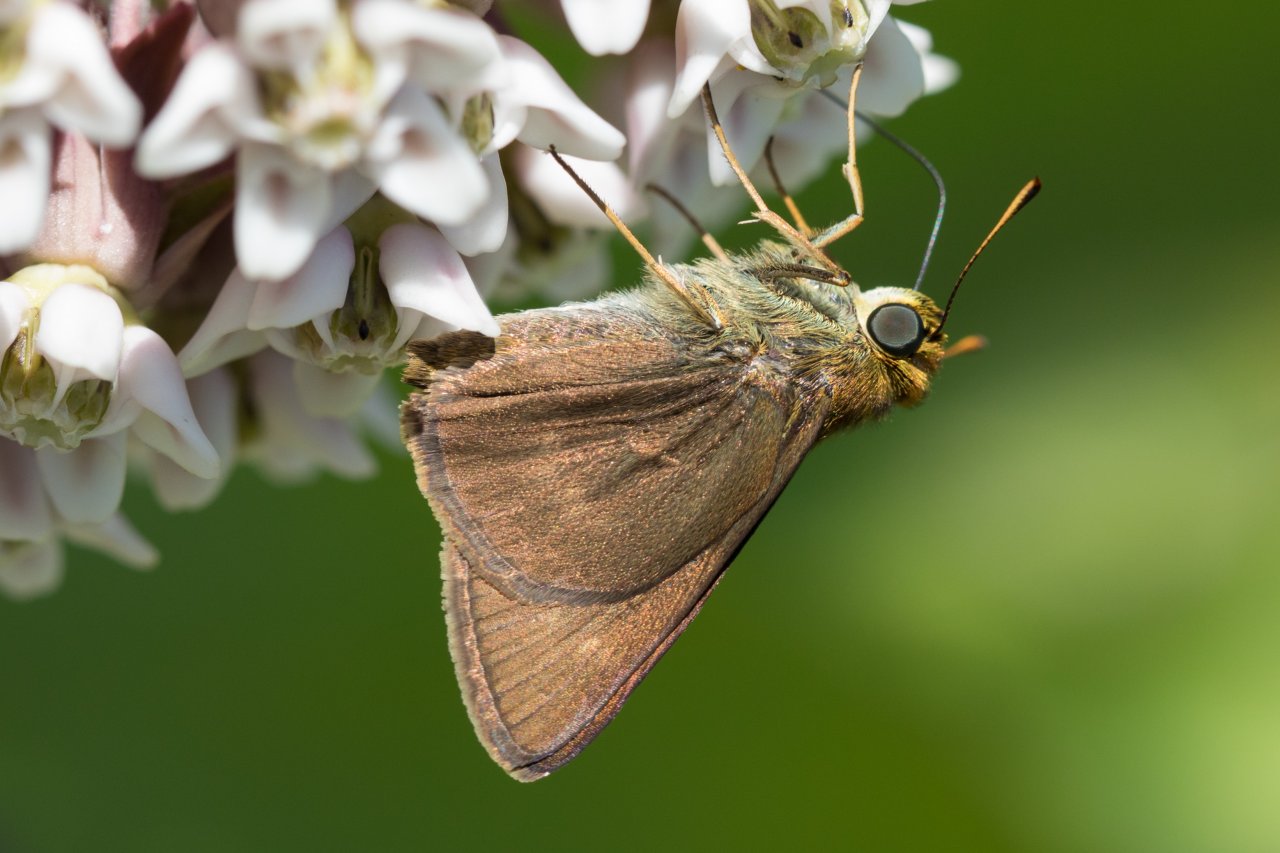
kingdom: Animalia
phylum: Arthropoda
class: Insecta
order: Lepidoptera
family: Hesperiidae
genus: Euphyes
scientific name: Euphyes vestris
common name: Dun Skipper
